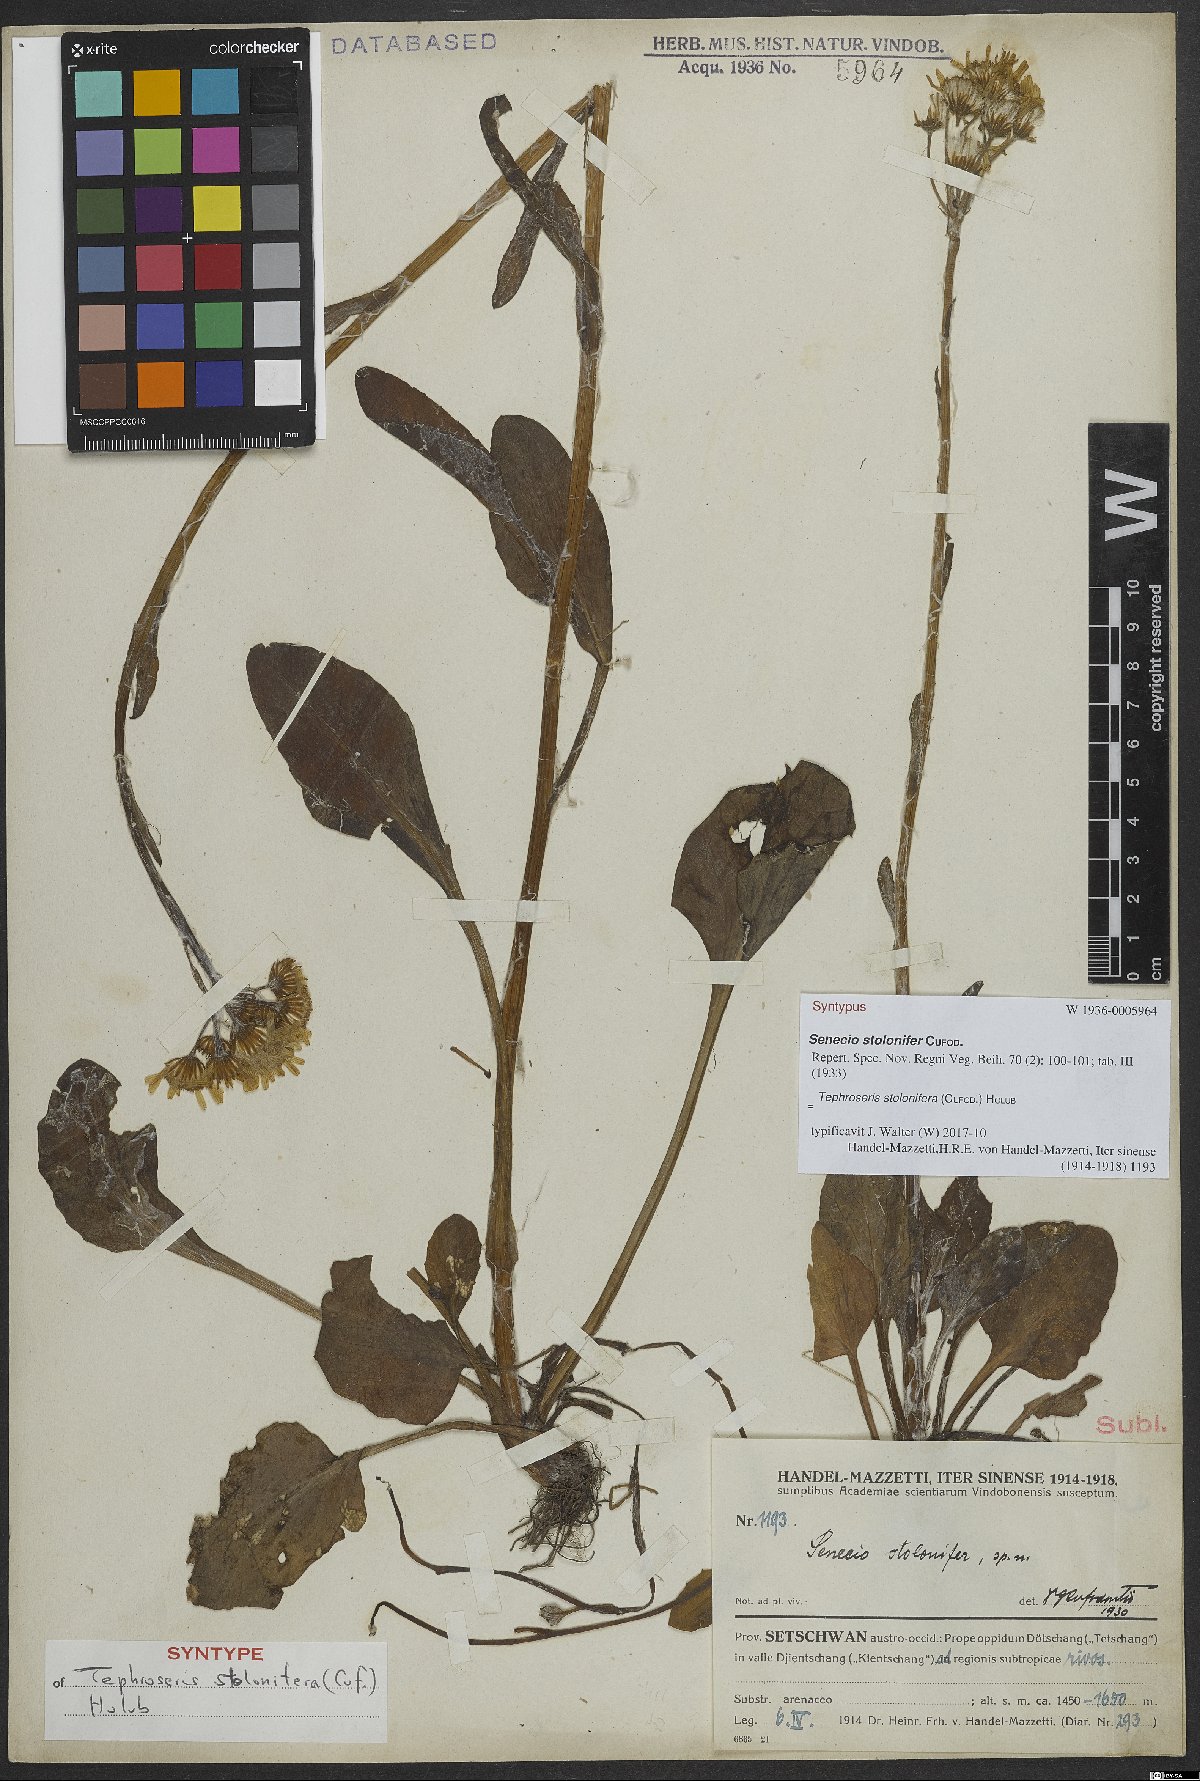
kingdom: Plantae
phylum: Tracheophyta
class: Magnoliopsida
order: Asterales
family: Asteraceae
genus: Tephroseris
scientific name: Tephroseris stolonifera
